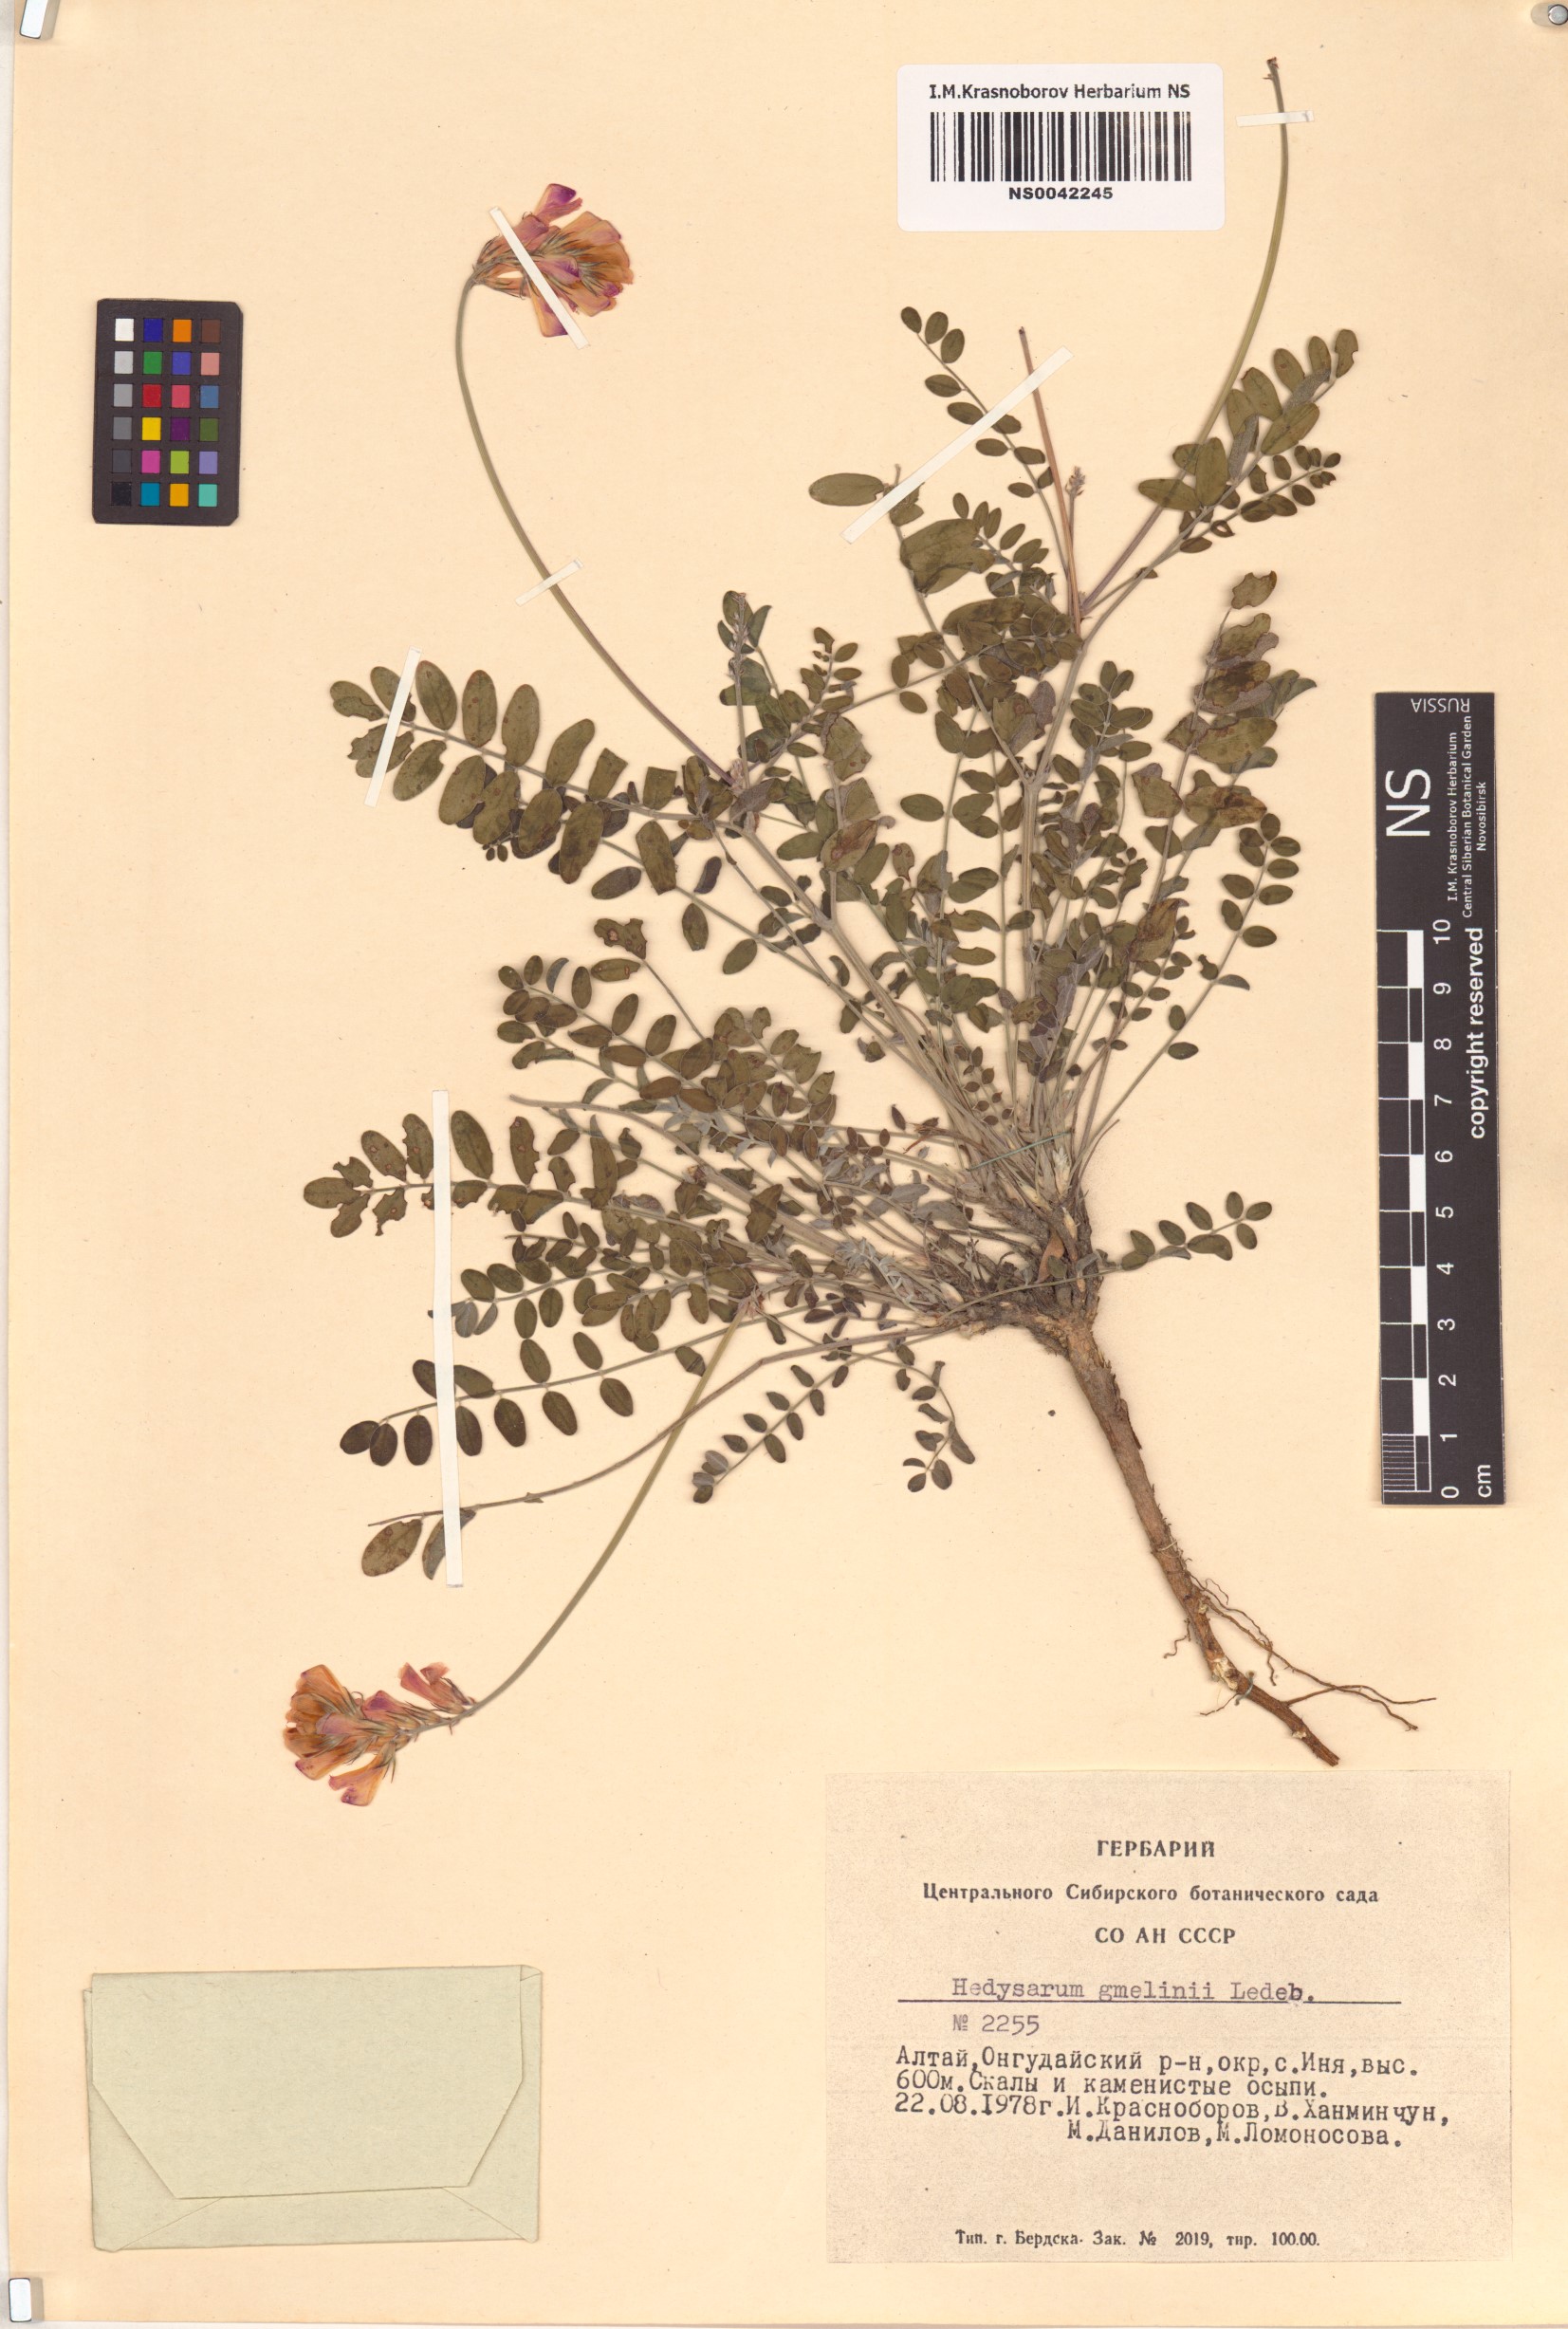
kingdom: Plantae
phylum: Tracheophyta
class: Magnoliopsida
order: Fabales
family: Fabaceae
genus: Hedysarum
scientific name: Hedysarum gmelinii
